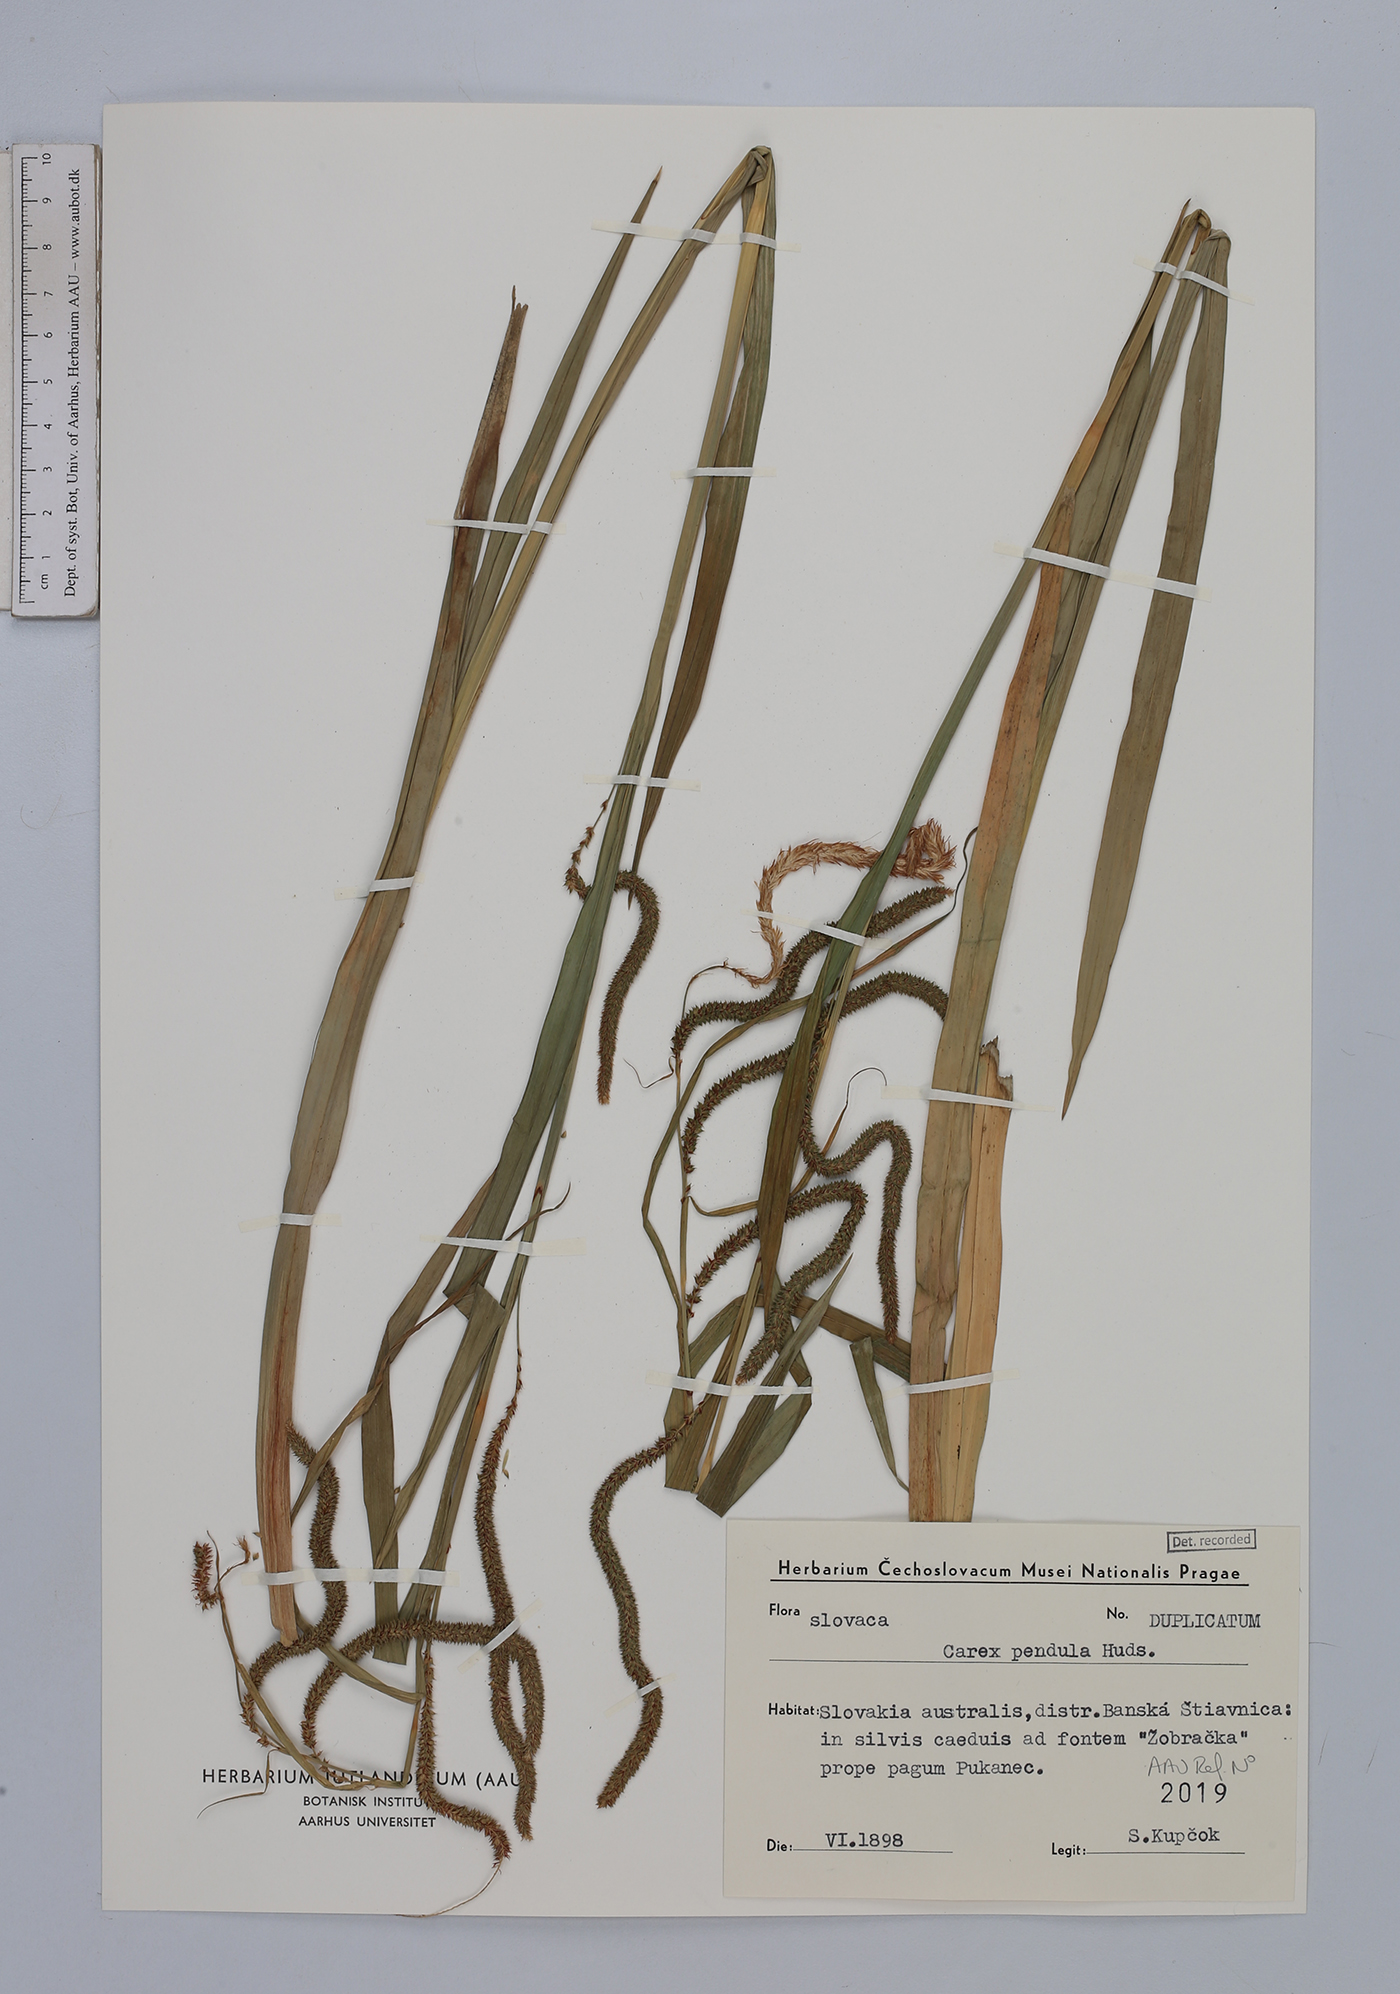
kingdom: Plantae
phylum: Tracheophyta
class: Liliopsida
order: Poales
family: Cyperaceae
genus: Carex
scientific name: Carex pendula
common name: Pendulous sedge
